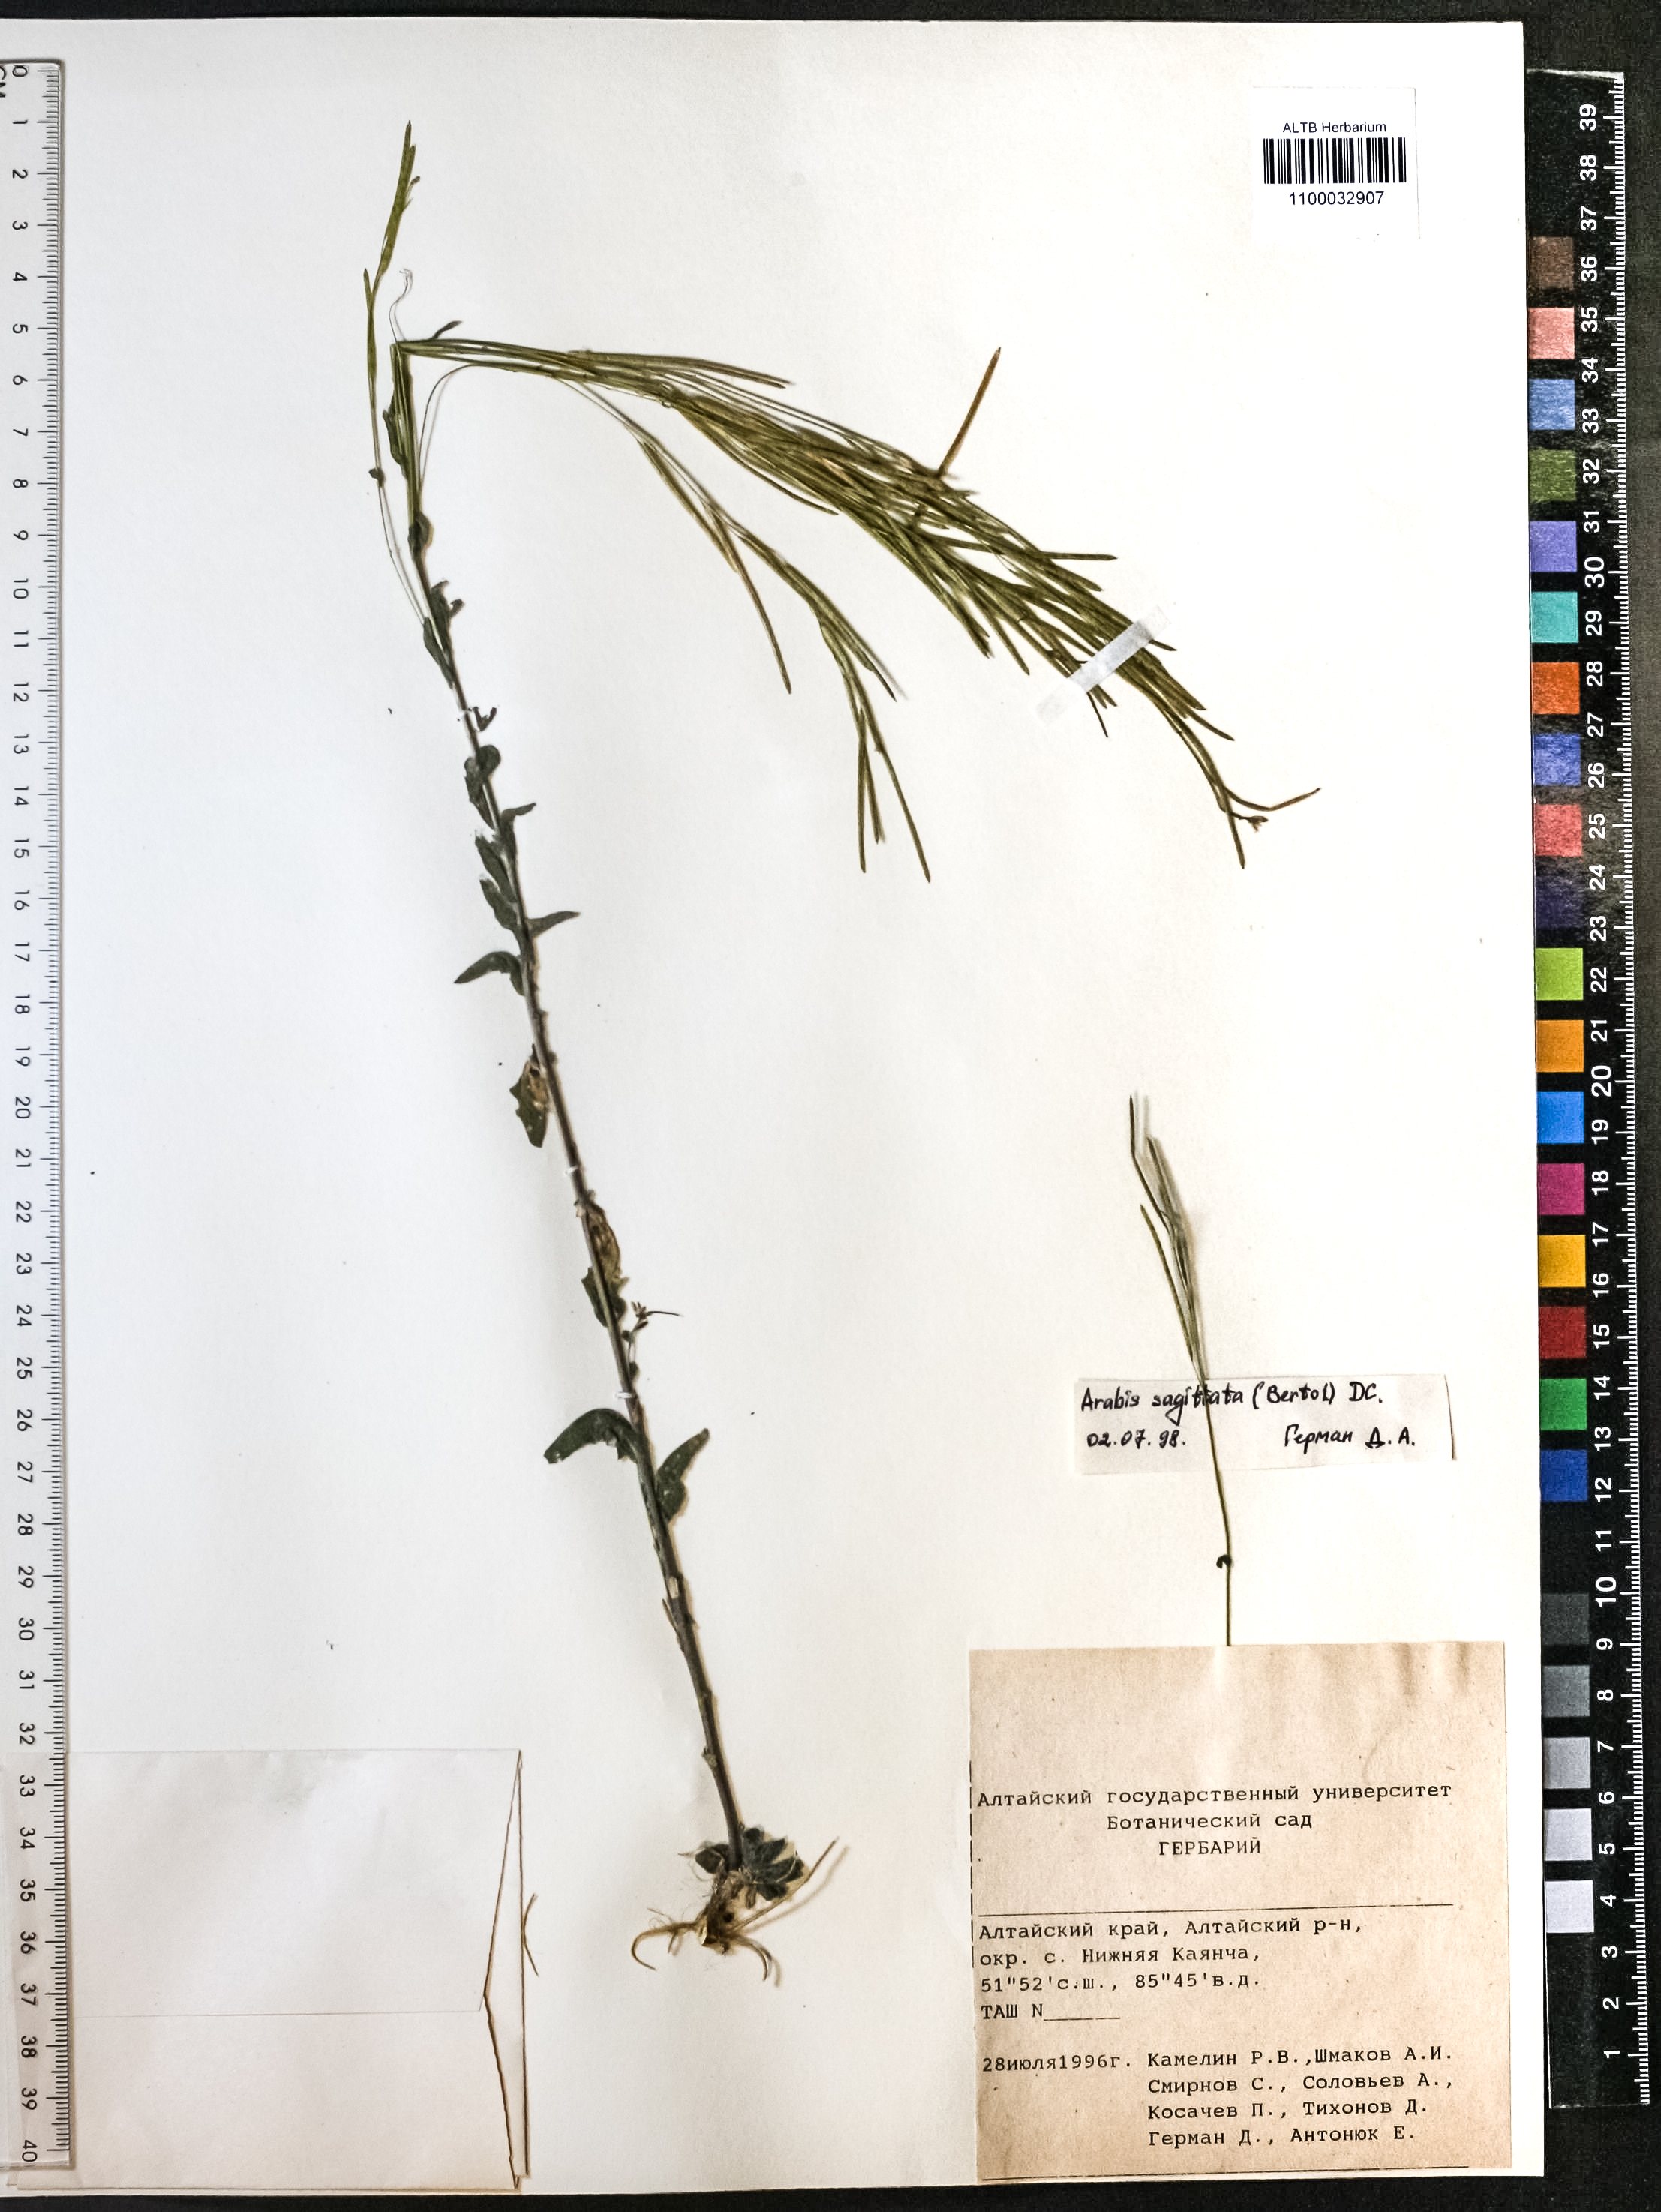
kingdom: Plantae
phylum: Tracheophyta
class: Magnoliopsida
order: Brassicales
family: Brassicaceae
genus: Arabis
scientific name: Arabis sagittata
